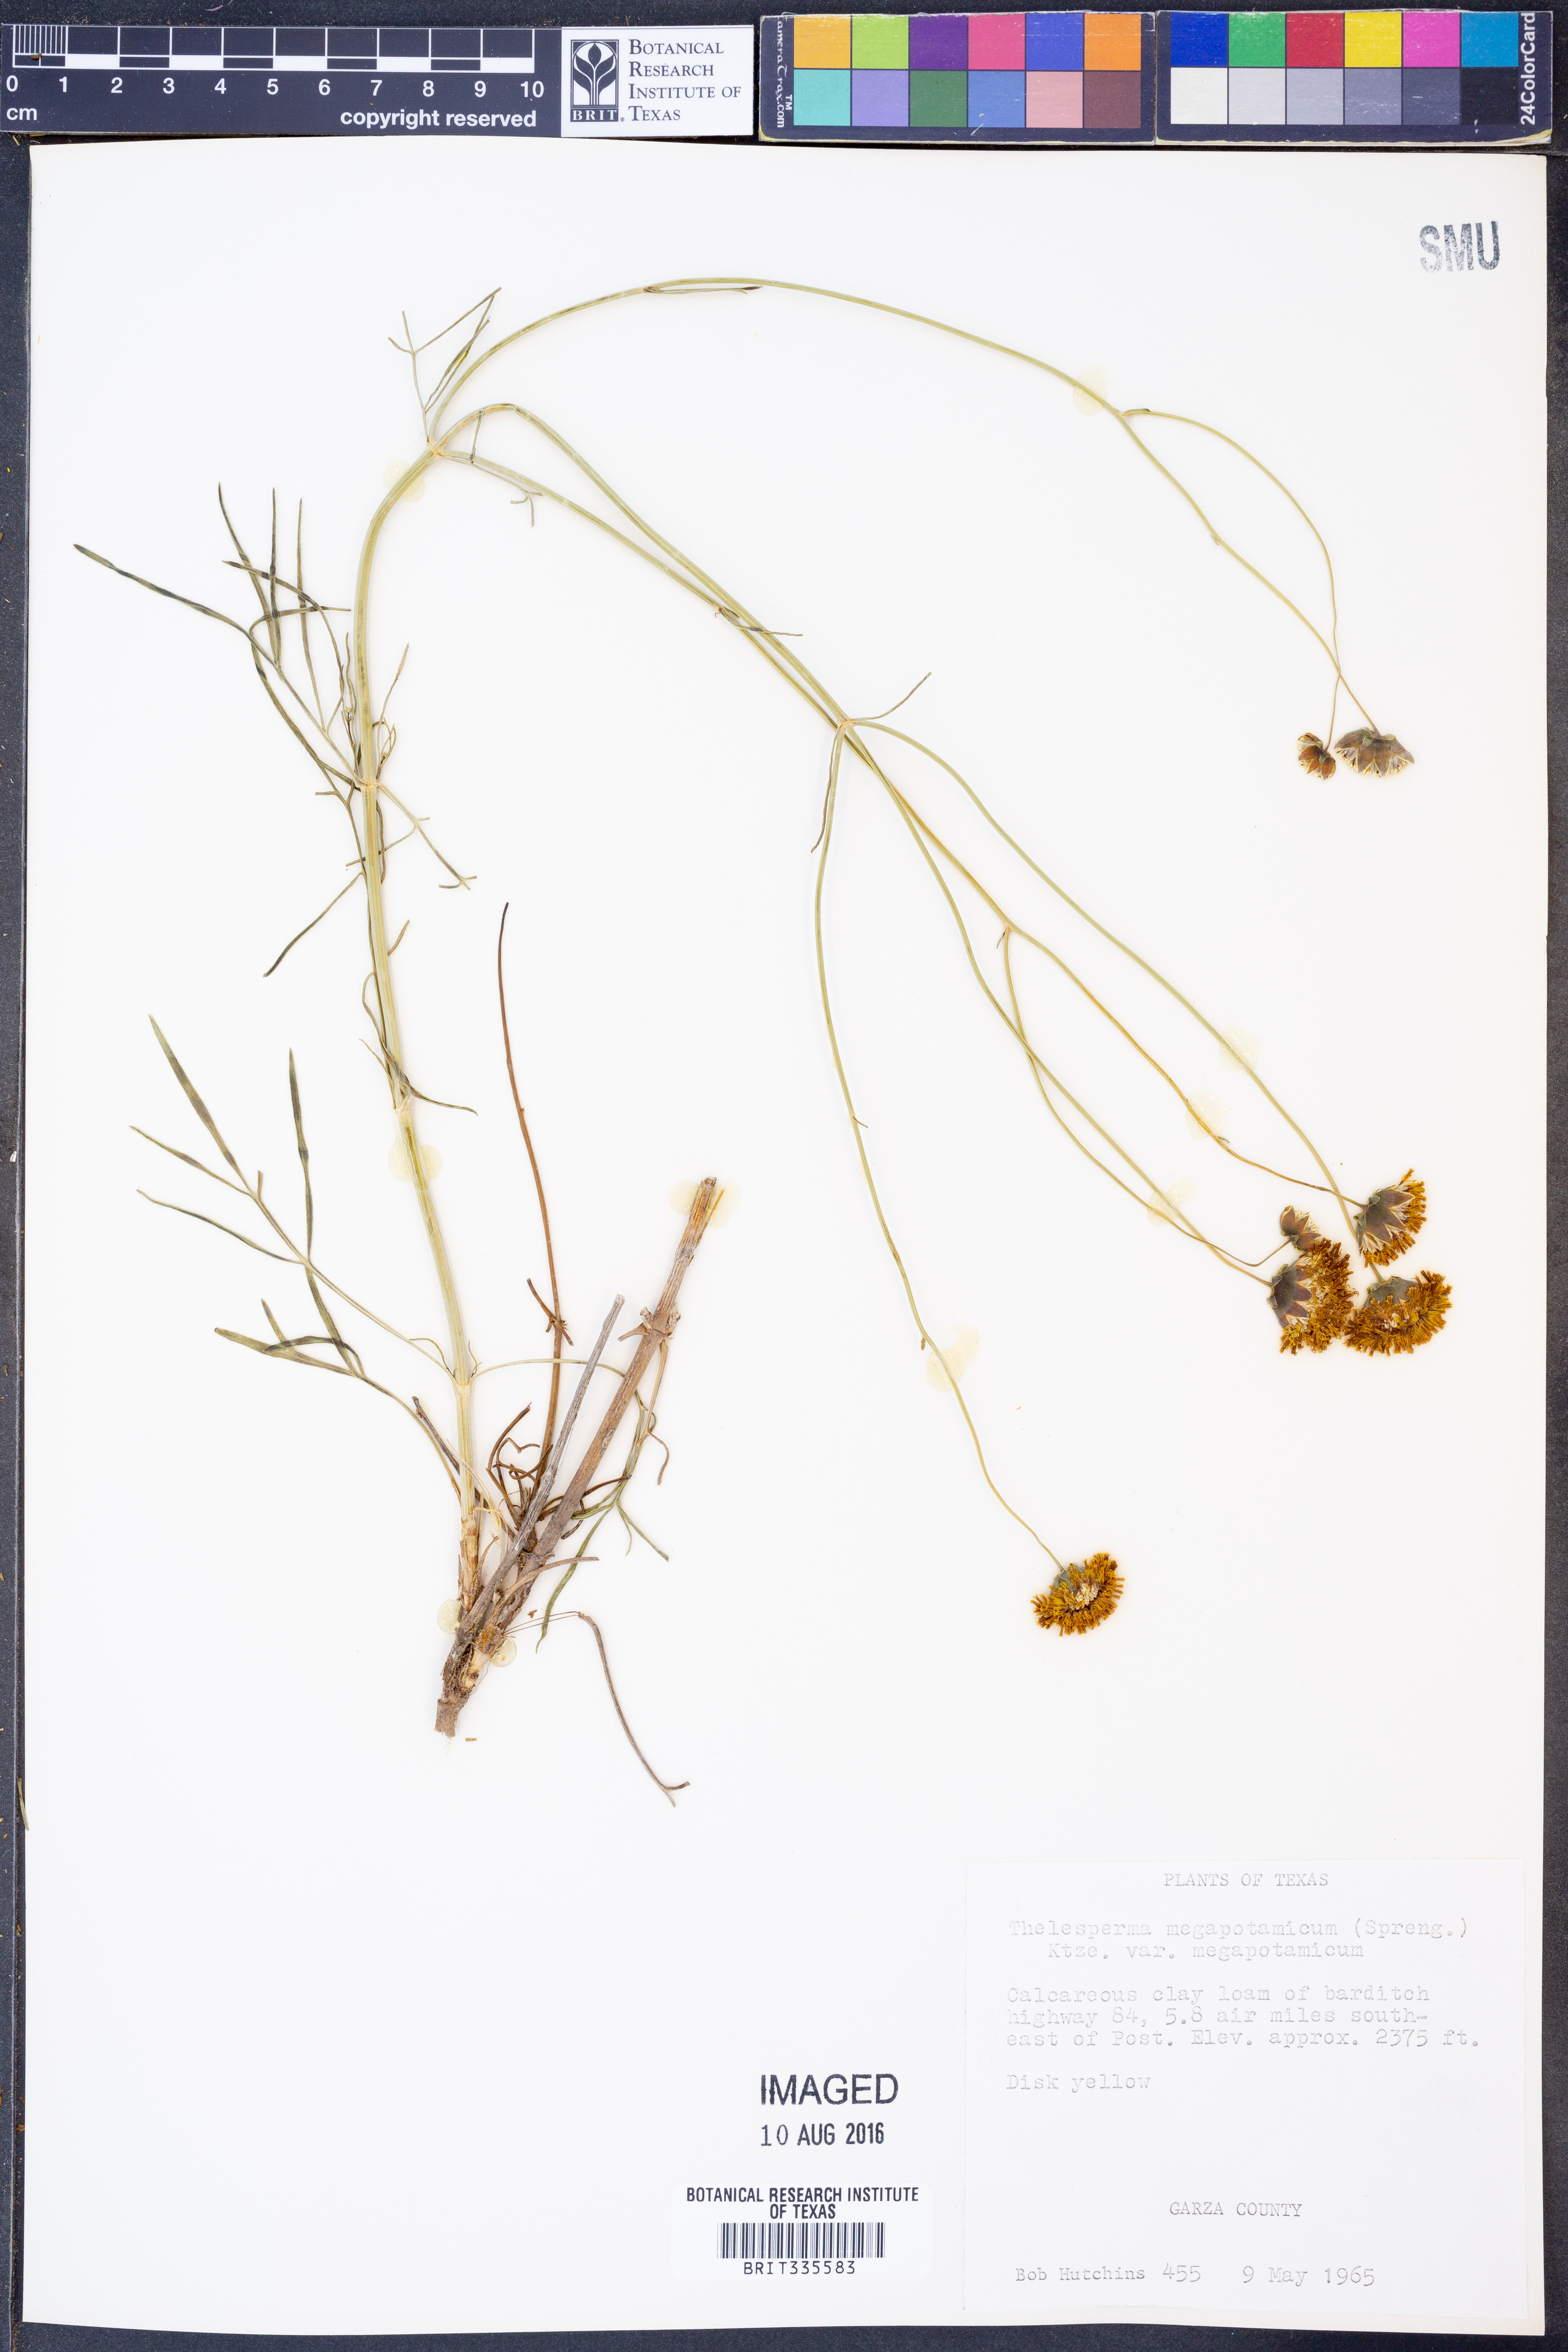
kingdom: Plantae
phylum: Tracheophyta
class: Magnoliopsida
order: Asterales
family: Asteraceae
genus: Thelesperma
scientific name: Thelesperma megapotamicum
